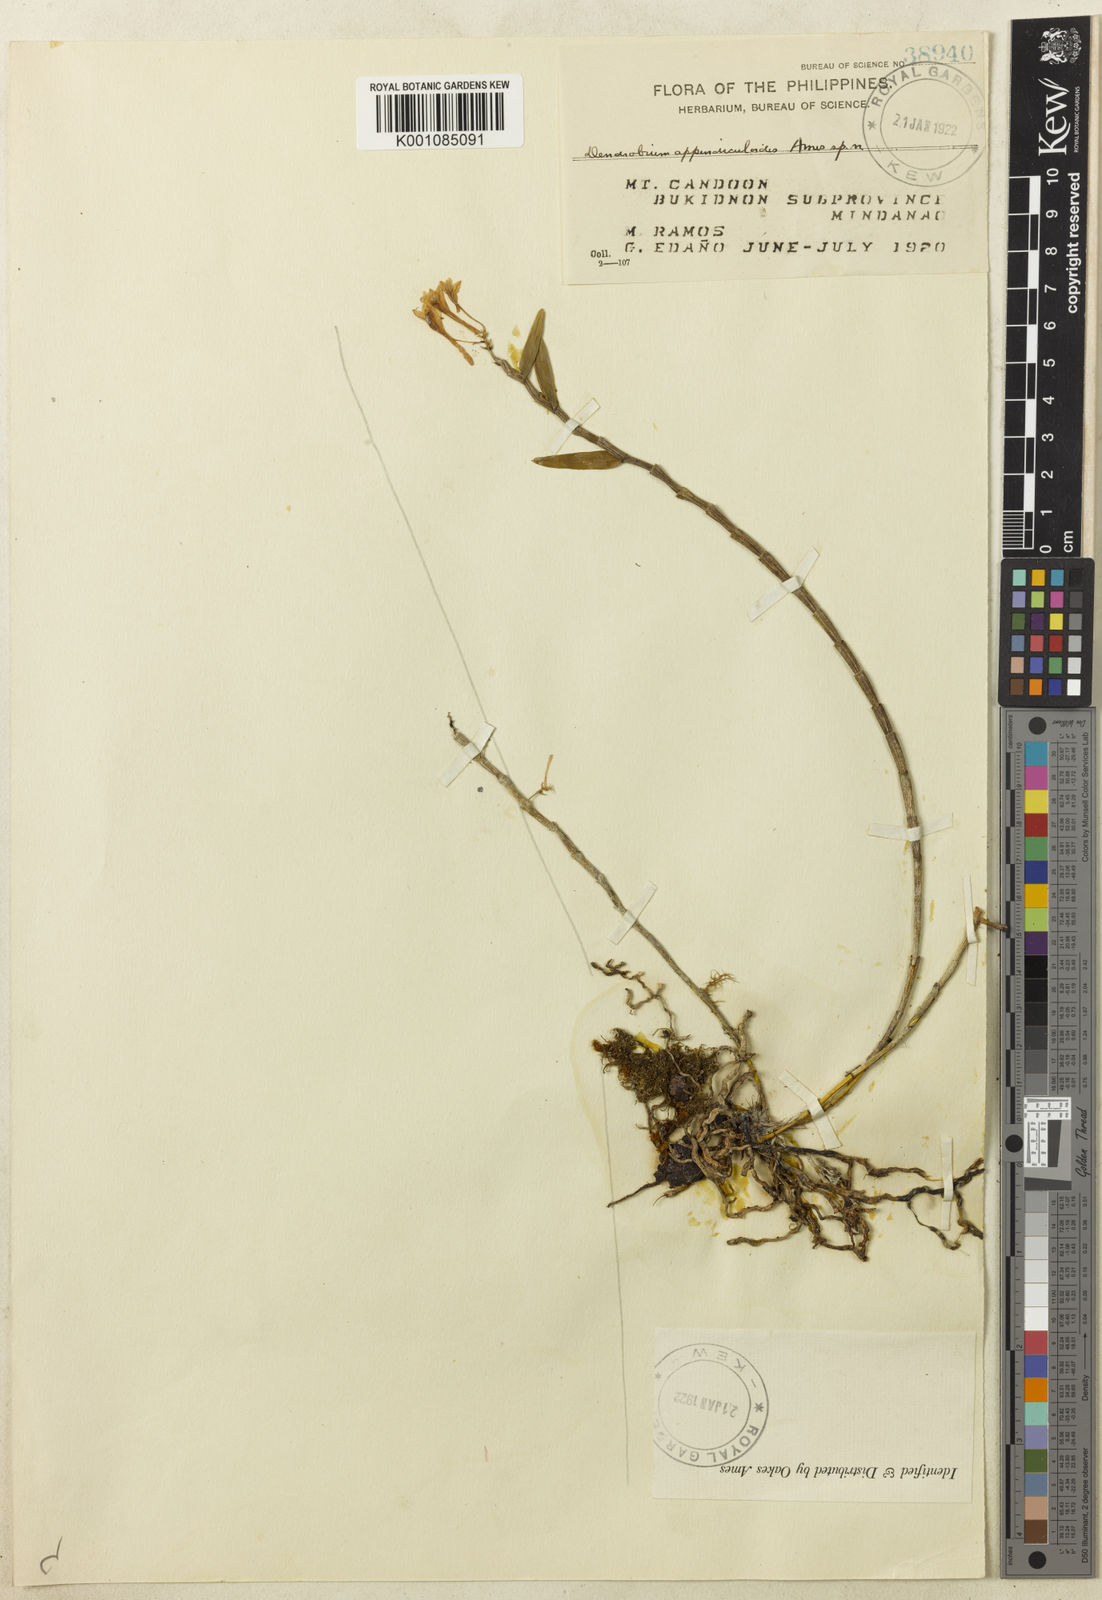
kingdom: Plantae
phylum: Tracheophyta
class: Liliopsida
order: Asparagales
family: Orchidaceae
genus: Dendrobium
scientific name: Dendrobium zamboangense
